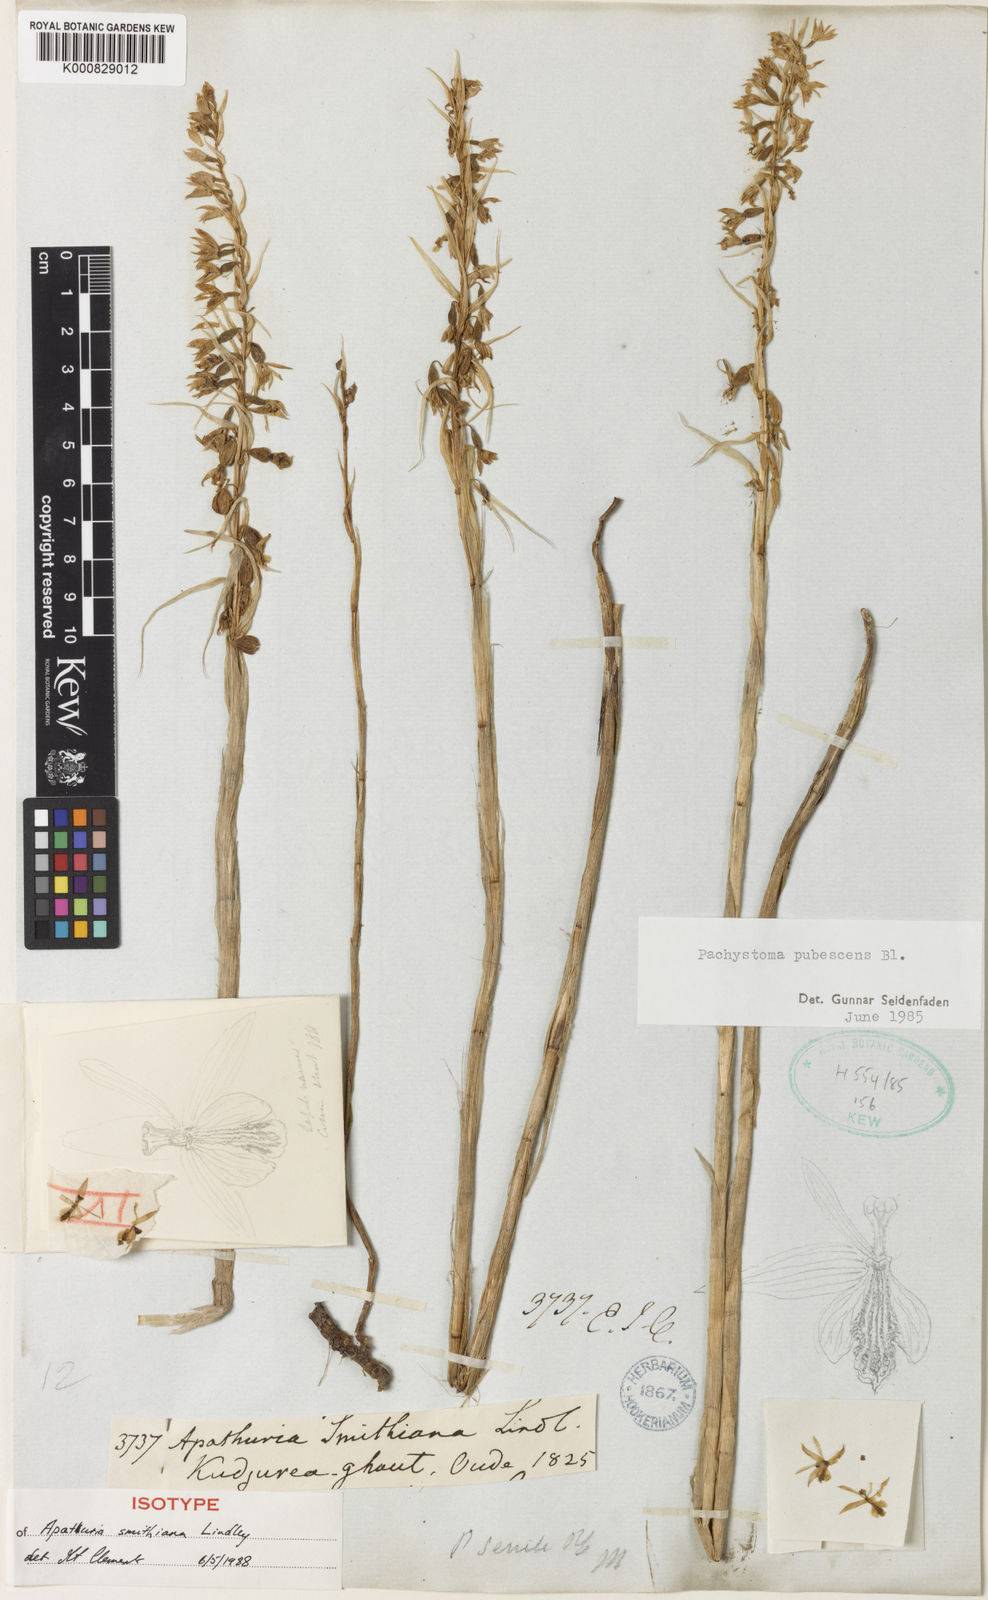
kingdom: Plantae
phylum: Tracheophyta
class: Liliopsida
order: Asparagales
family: Orchidaceae
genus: Pachystoma
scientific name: Pachystoma pubescens
